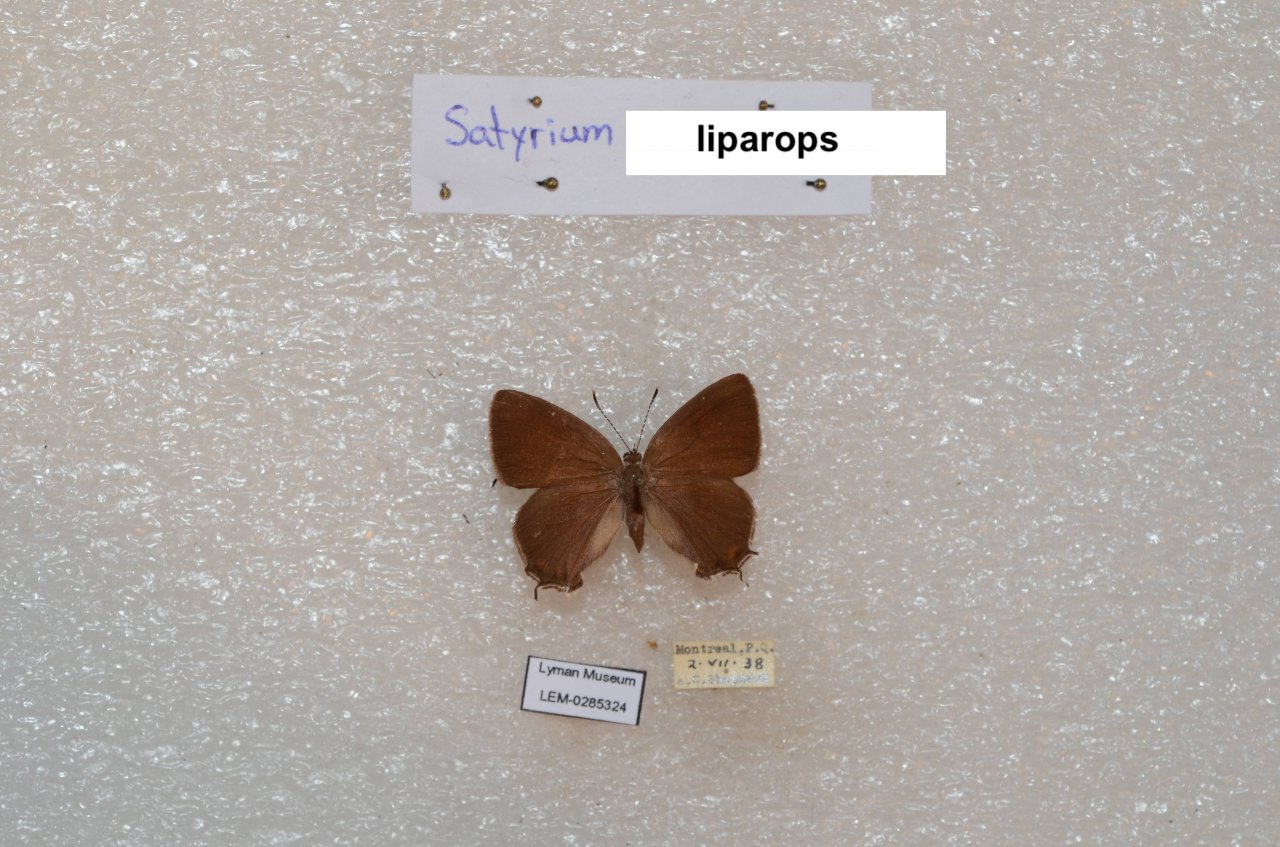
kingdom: Animalia
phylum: Arthropoda
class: Insecta
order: Lepidoptera
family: Lycaenidae
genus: Satyrium
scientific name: Satyrium liparops
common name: Striped Hairstreak
